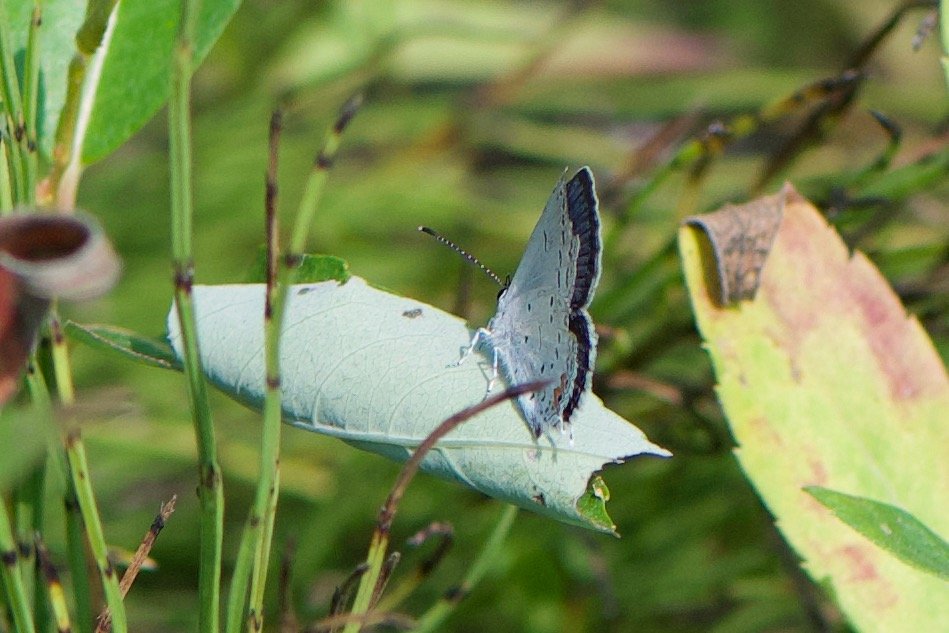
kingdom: Animalia
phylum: Arthropoda
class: Insecta
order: Lepidoptera
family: Lycaenidae
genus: Elkalyce
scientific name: Elkalyce comyntas
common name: Eastern Tailed-Blue
